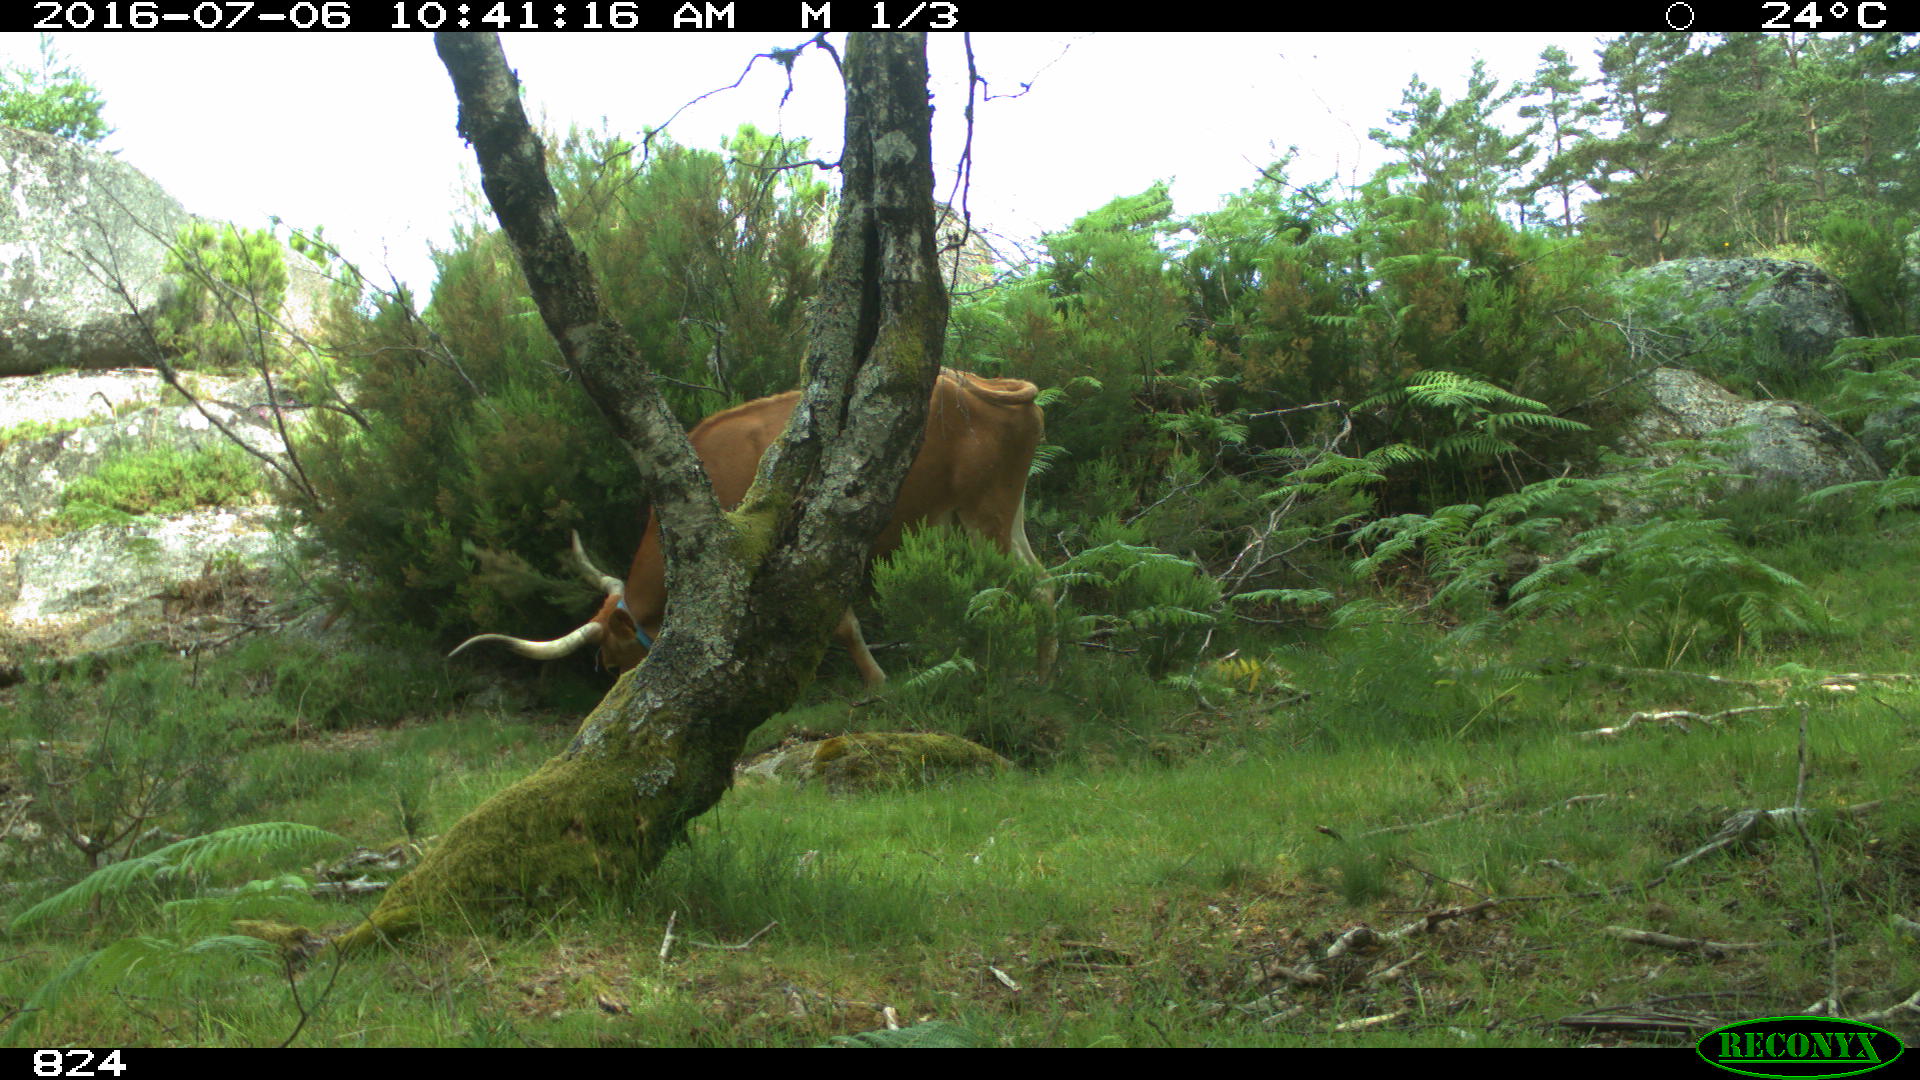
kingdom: Animalia
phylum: Chordata
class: Mammalia
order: Artiodactyla
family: Bovidae
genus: Bos
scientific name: Bos taurus
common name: Domesticated cattle
